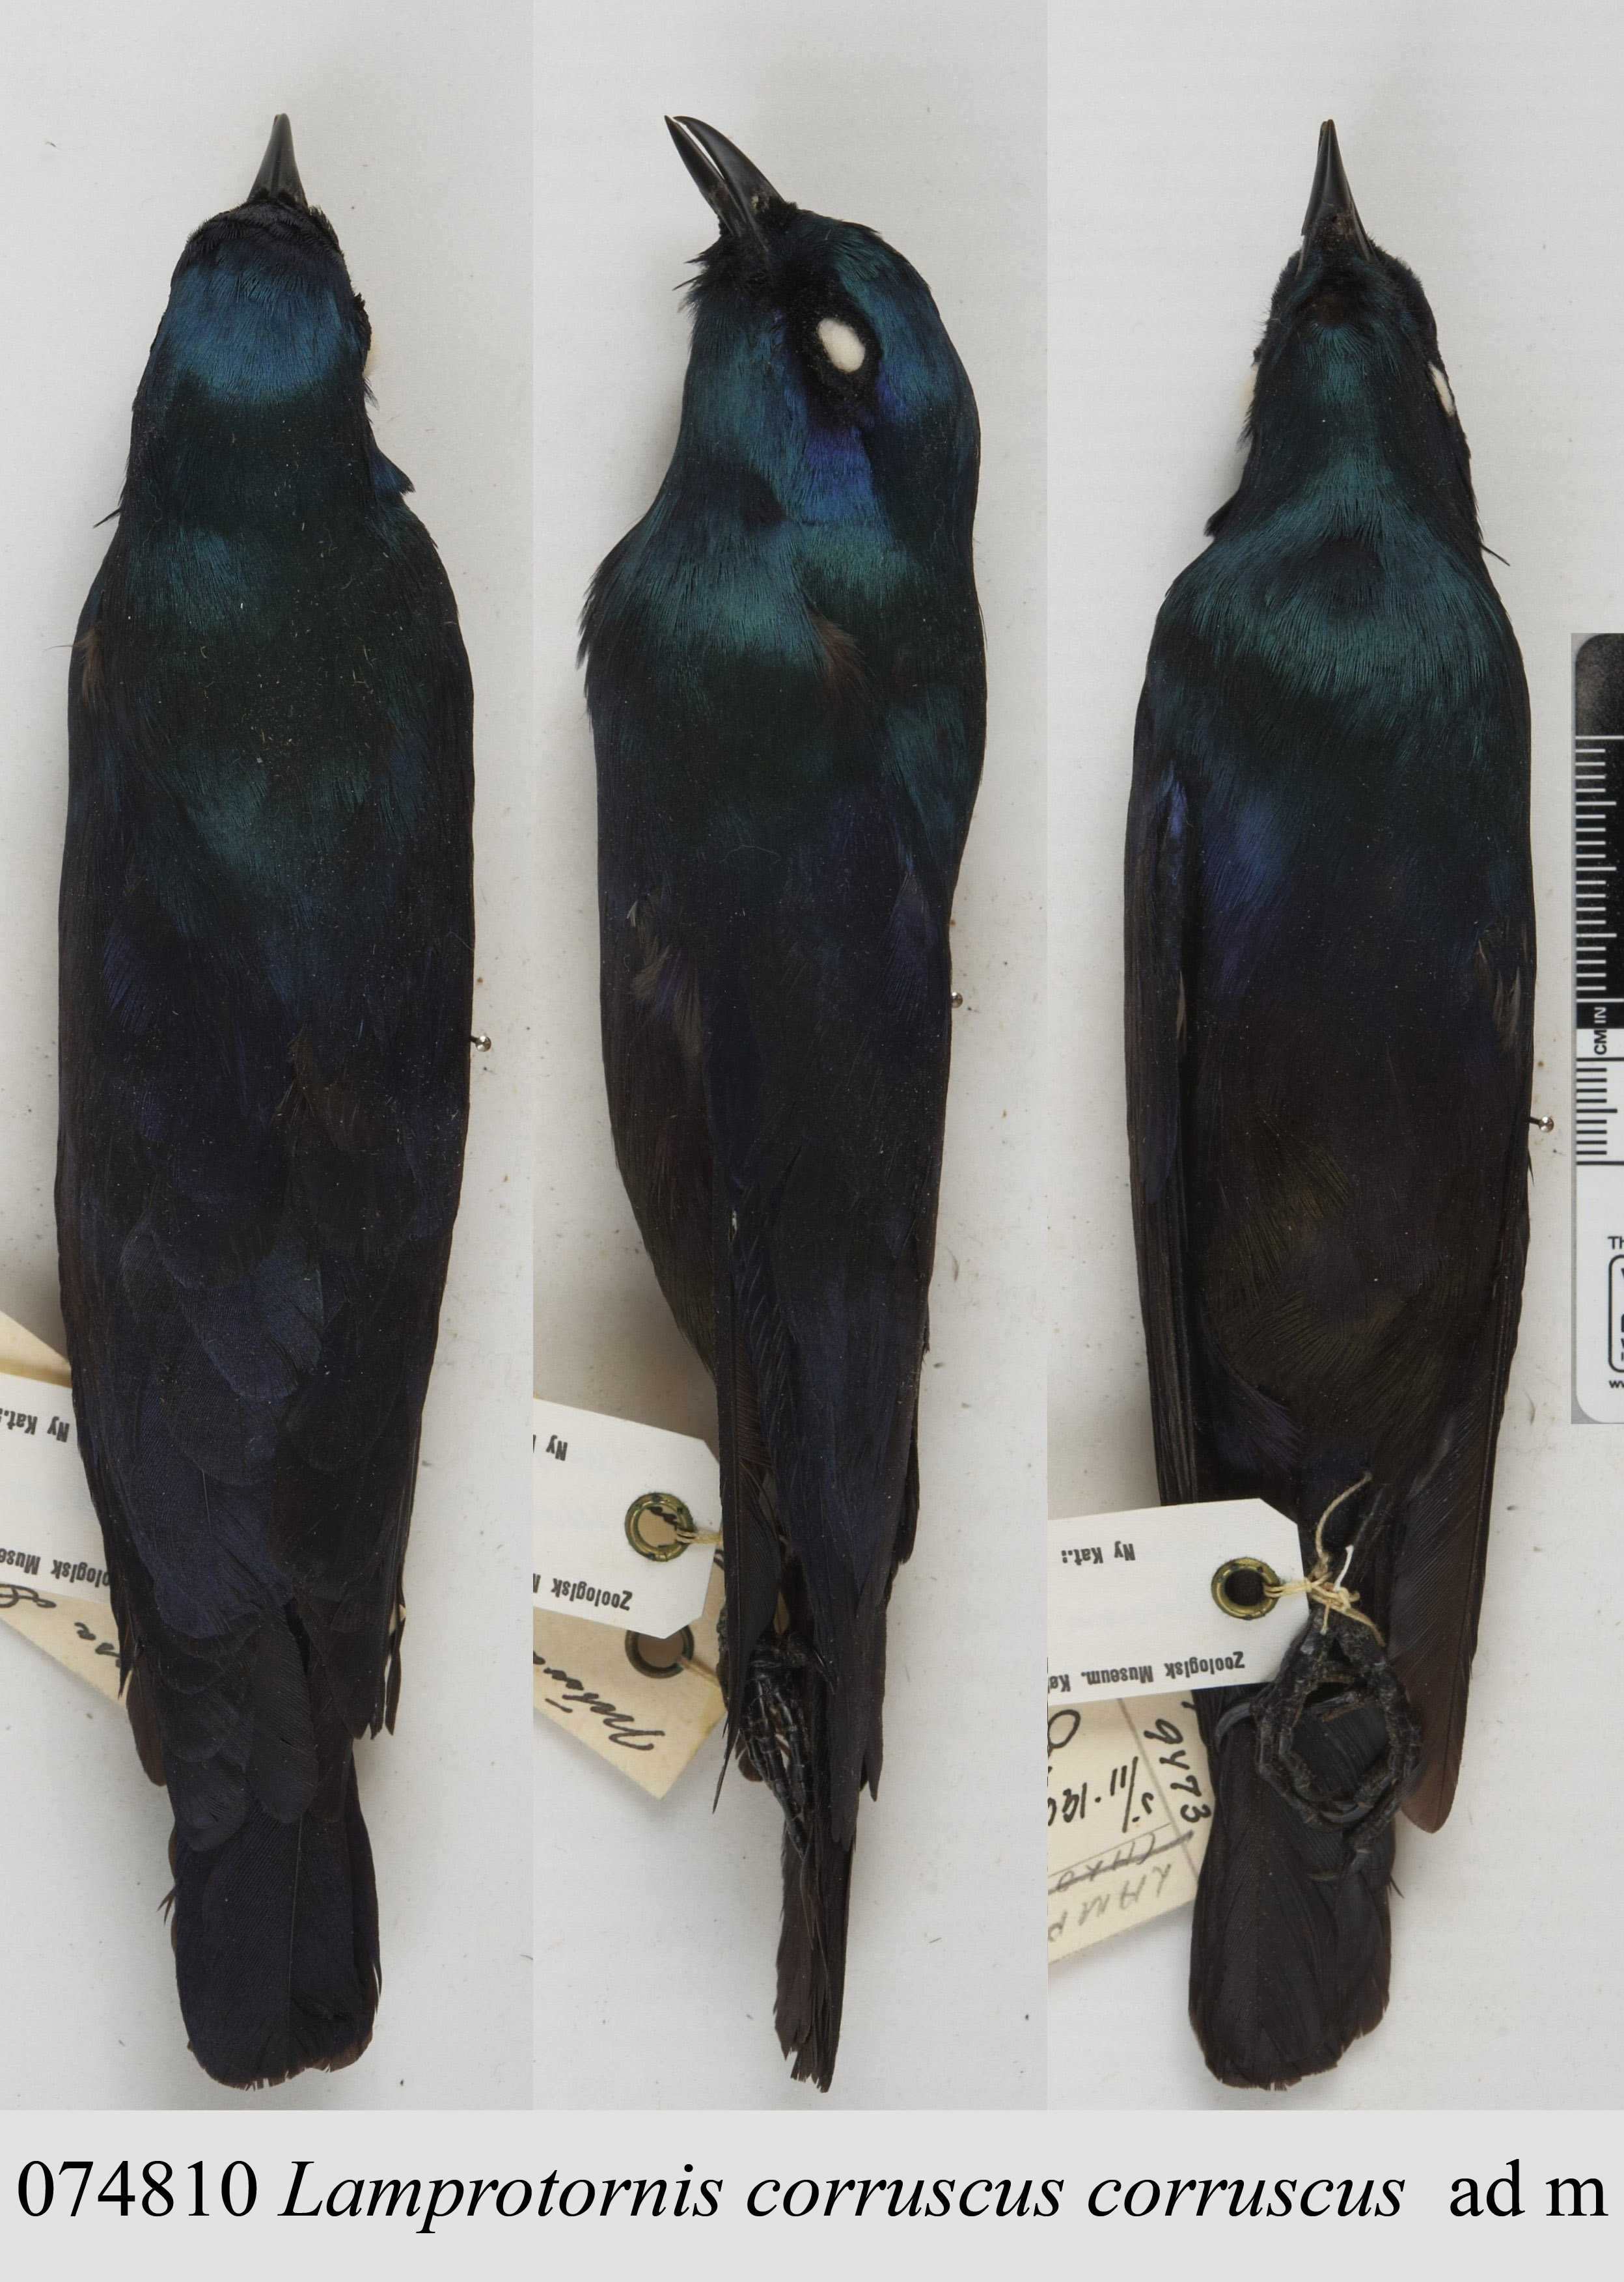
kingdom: Animalia
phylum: Chordata
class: Aves
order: Passeriformes
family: Sturnidae
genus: Notopholia
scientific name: Notopholia corrusca
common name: Black-bellied starling
